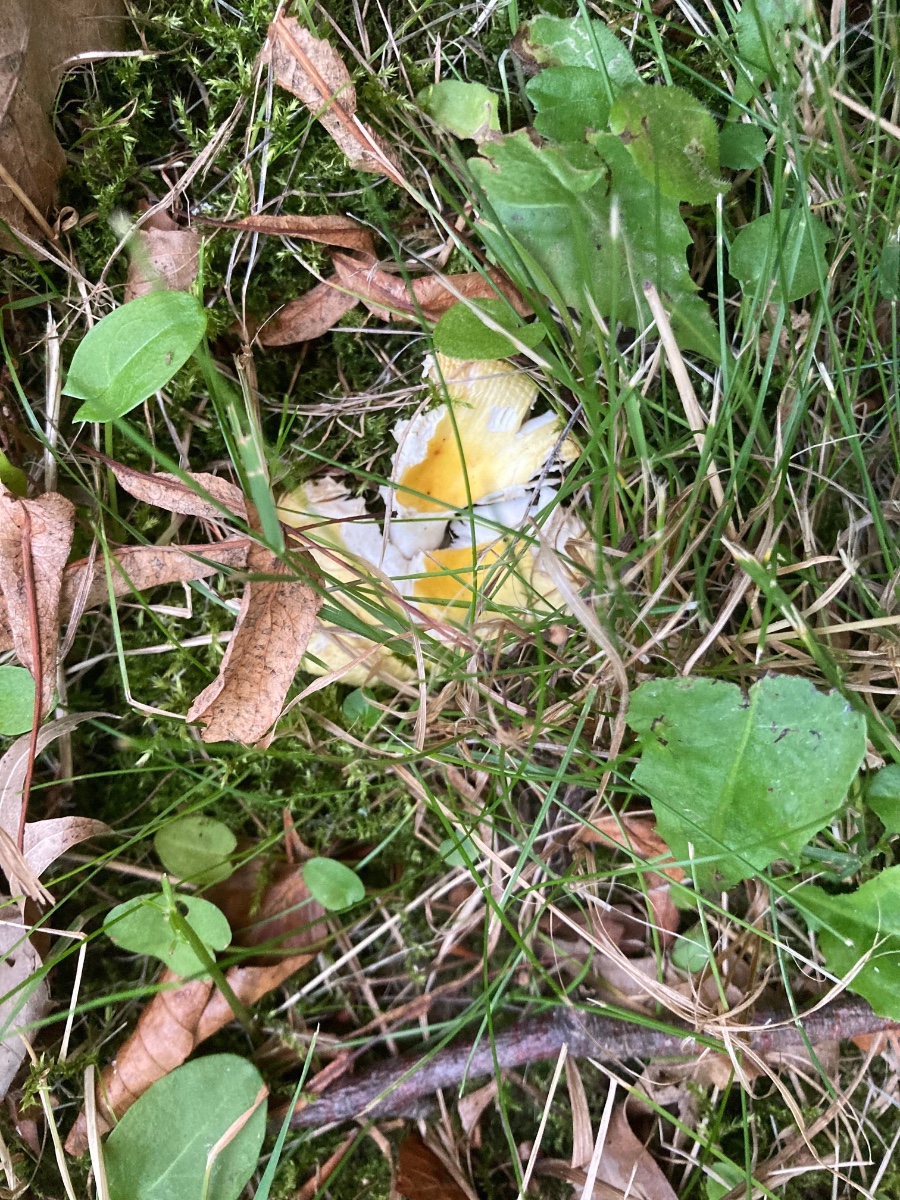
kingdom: Fungi
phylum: Basidiomycota
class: Agaricomycetes
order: Russulales
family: Russulaceae
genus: Russula
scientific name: Russula solaris
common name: sol-skørhat
